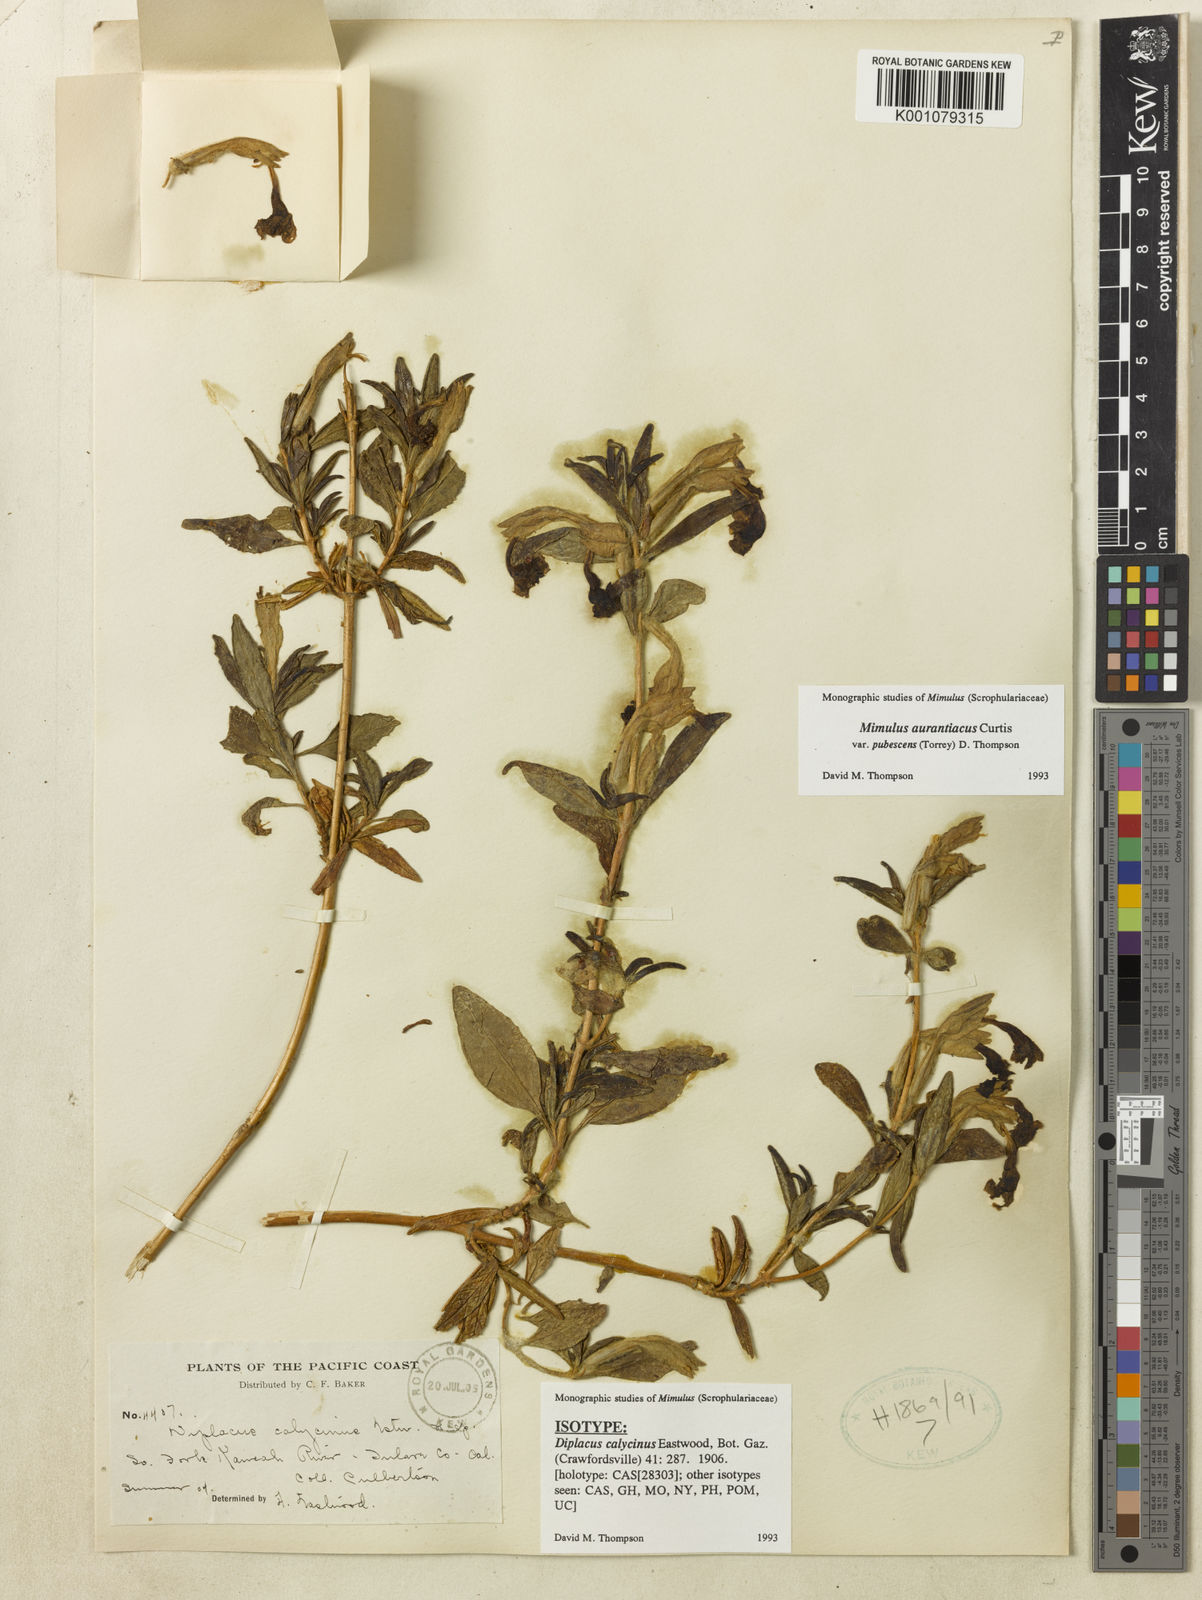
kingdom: Plantae
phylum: Tracheophyta
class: Magnoliopsida
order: Lamiales
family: Phrymaceae
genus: Diplacus
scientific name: Diplacus longiflorus
